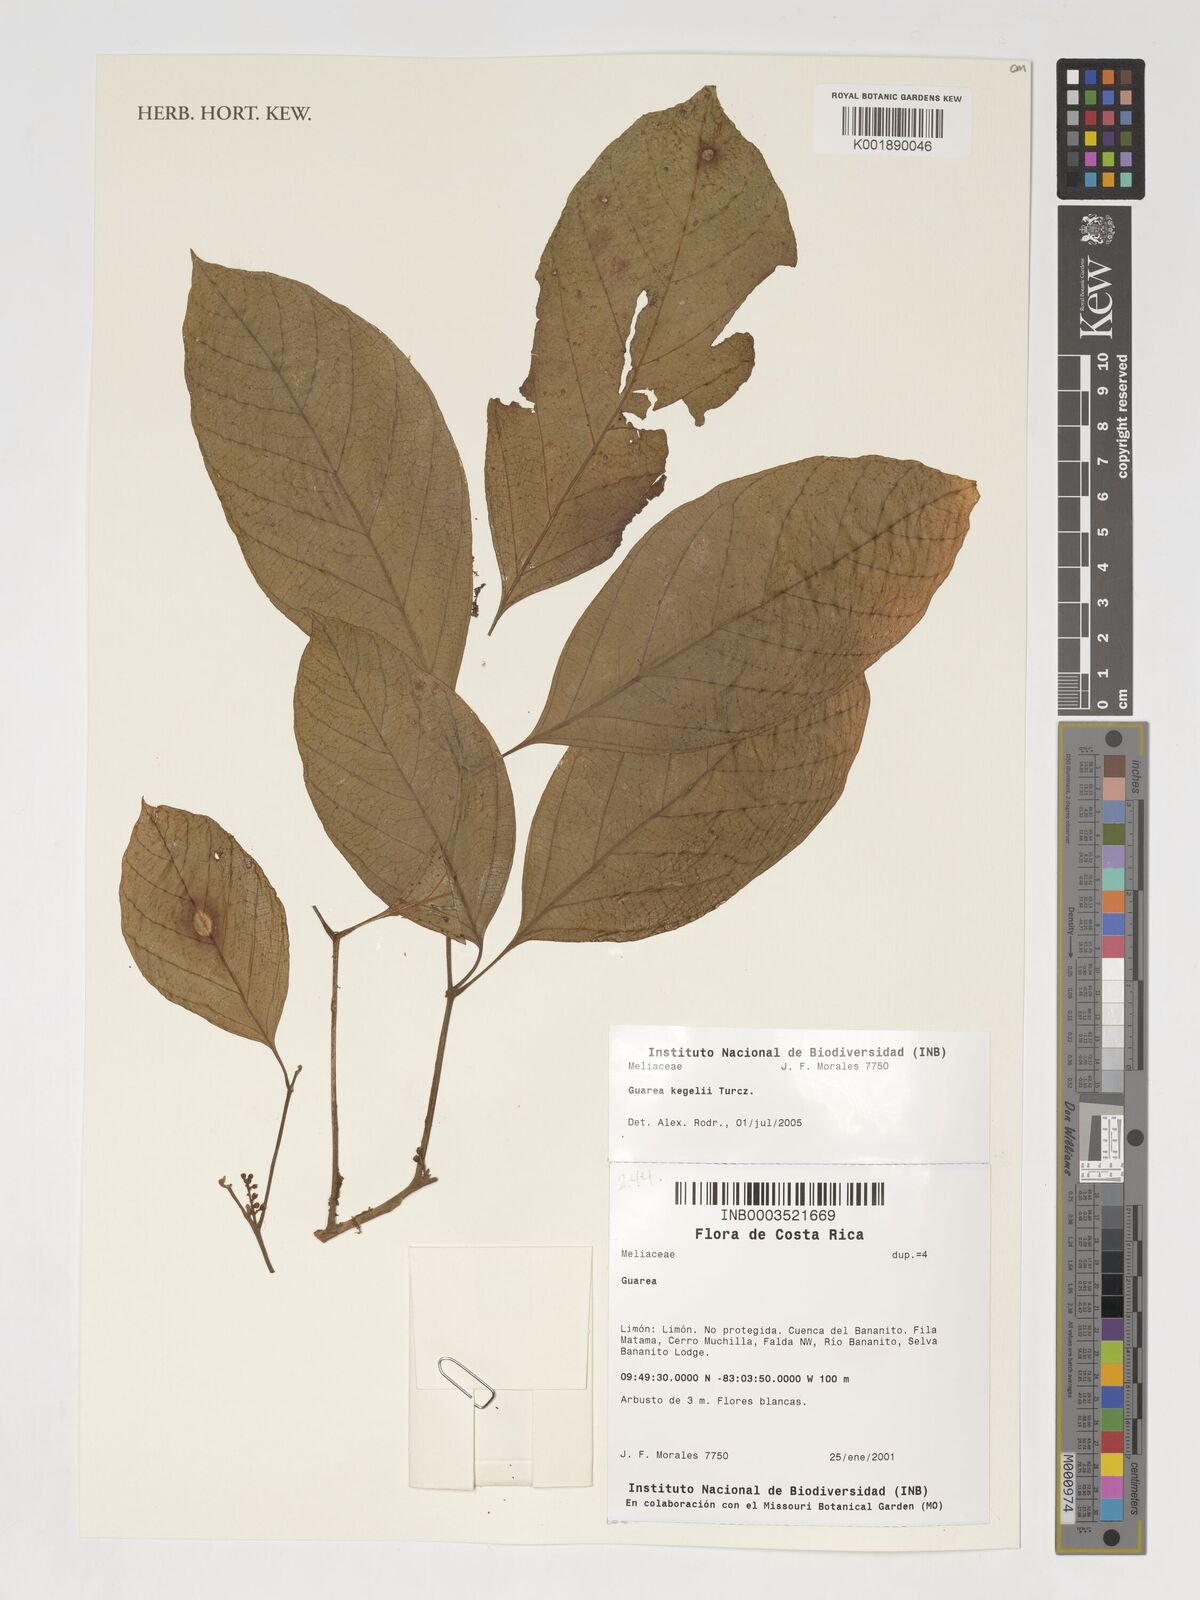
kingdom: Plantae
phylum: Tracheophyta
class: Magnoliopsida
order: Sapindales
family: Meliaceae
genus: Guarea
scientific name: Guarea
